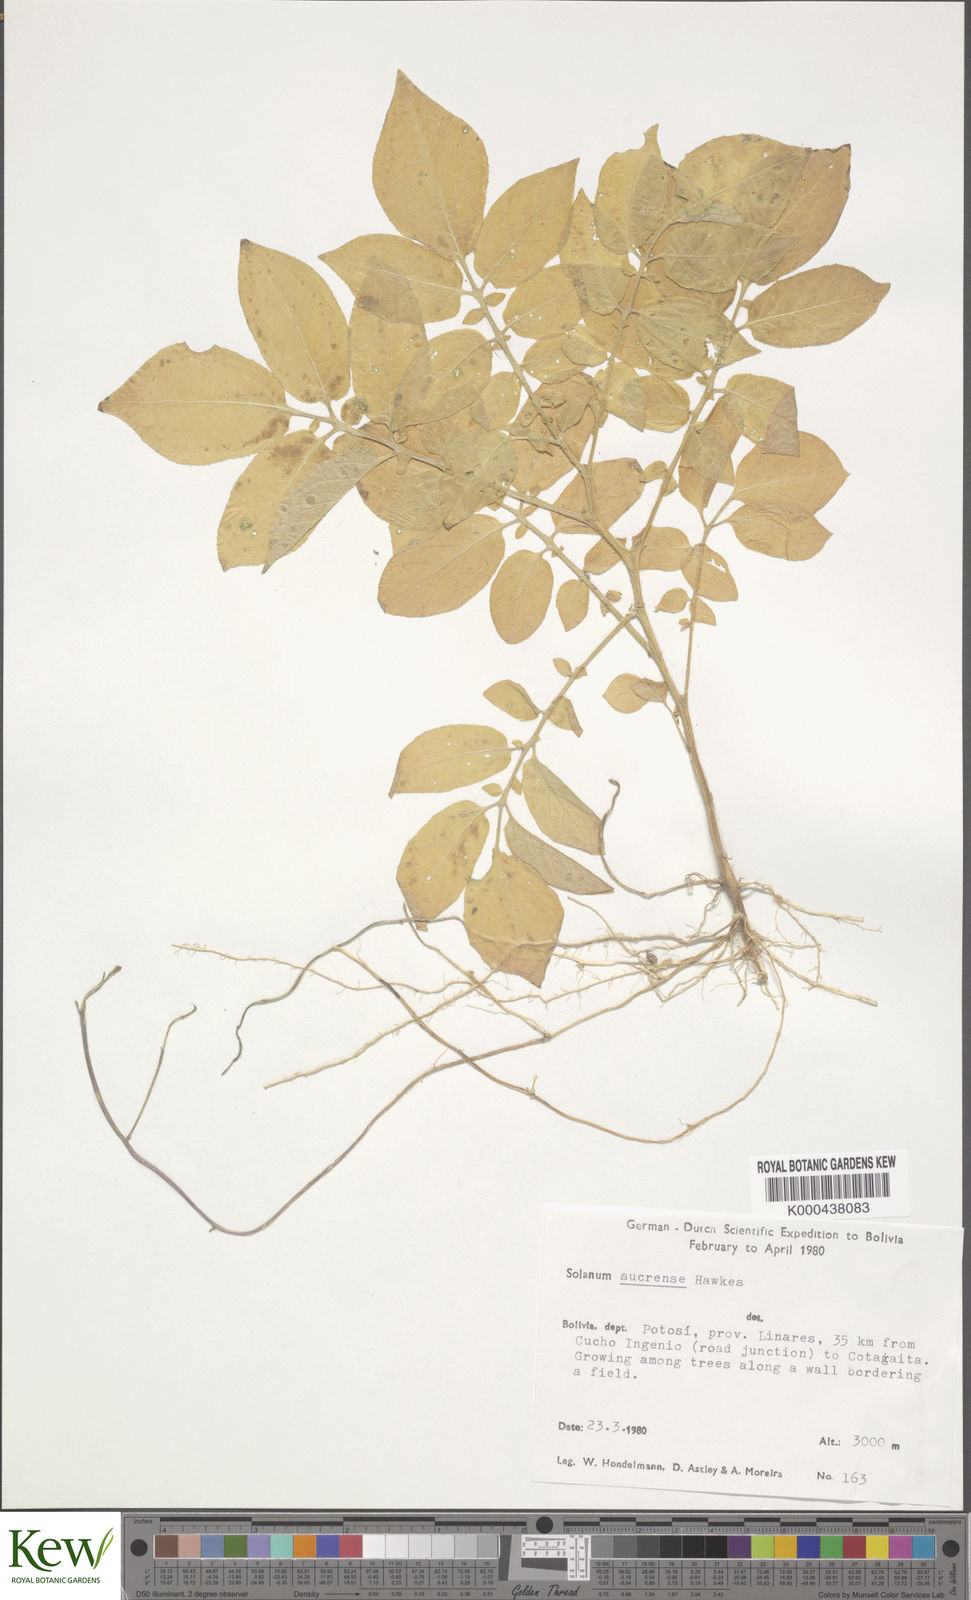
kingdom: Plantae
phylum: Tracheophyta
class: Magnoliopsida
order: Solanales
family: Solanaceae
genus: Solanum
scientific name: Solanum brevicaule
